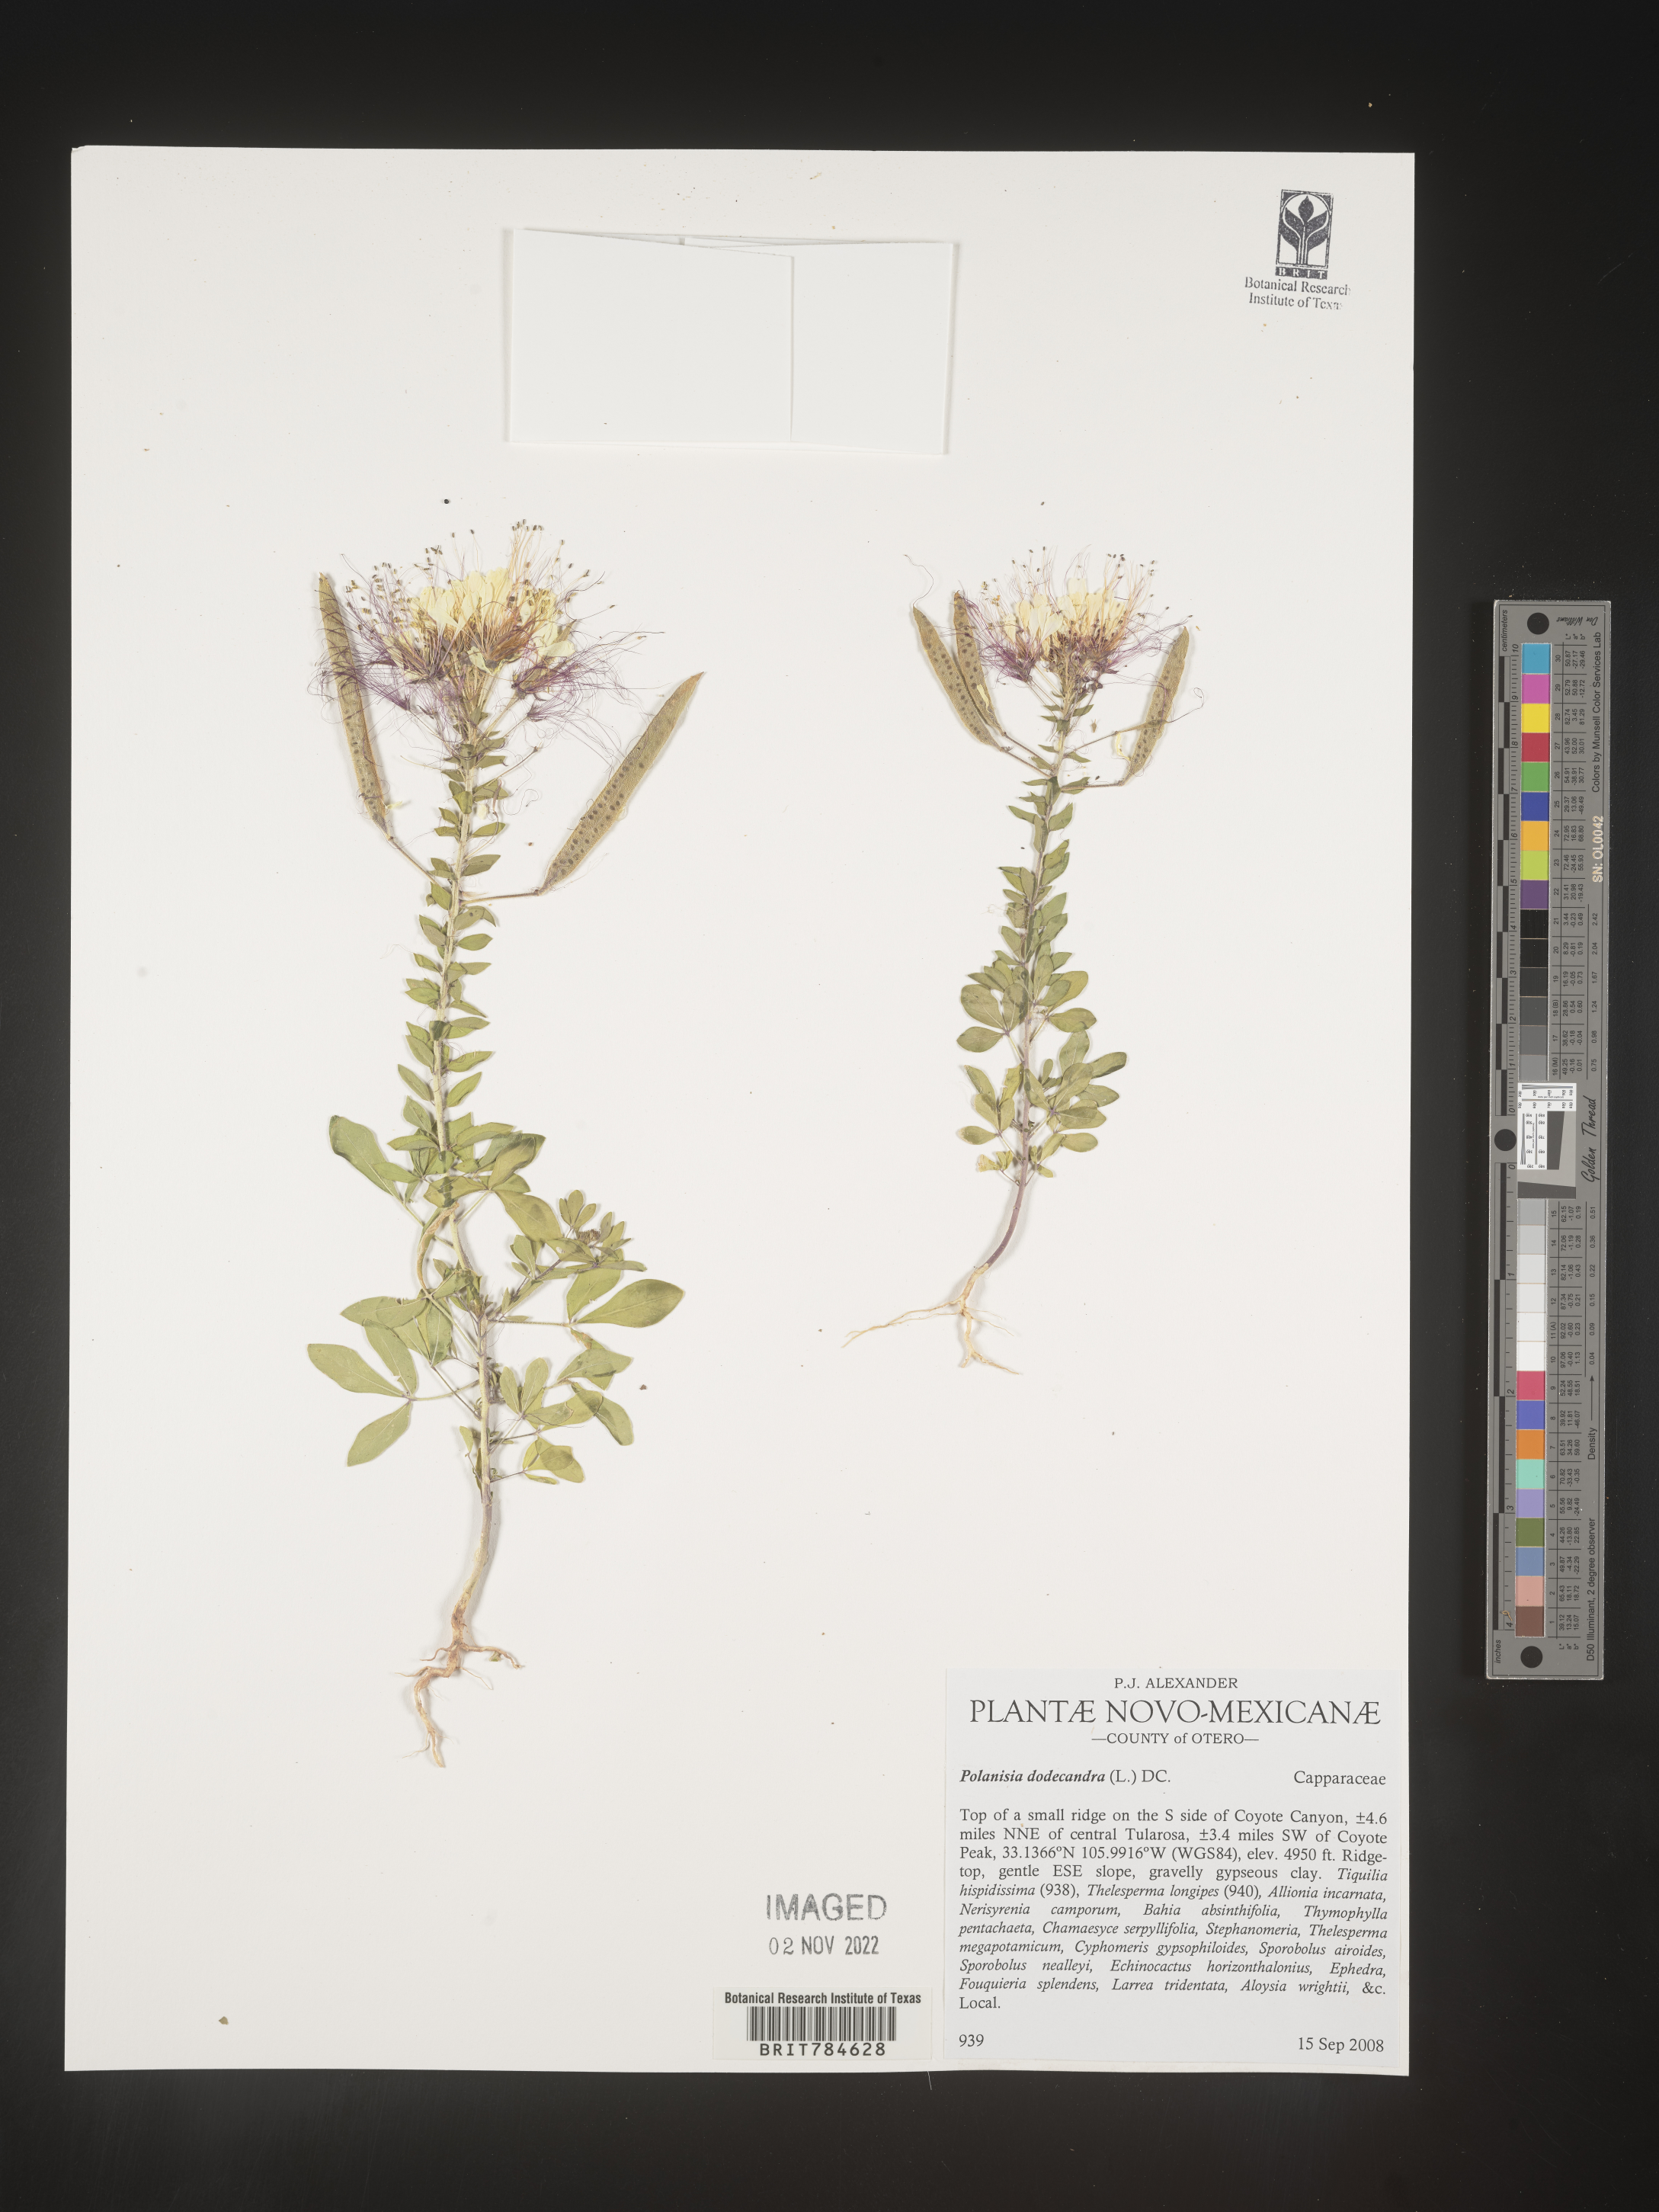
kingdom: Plantae
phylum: Tracheophyta
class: Magnoliopsida
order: Brassicales
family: Cleomaceae
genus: Polanisia
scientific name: Polanisia dodecandra
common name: Clammyweed
